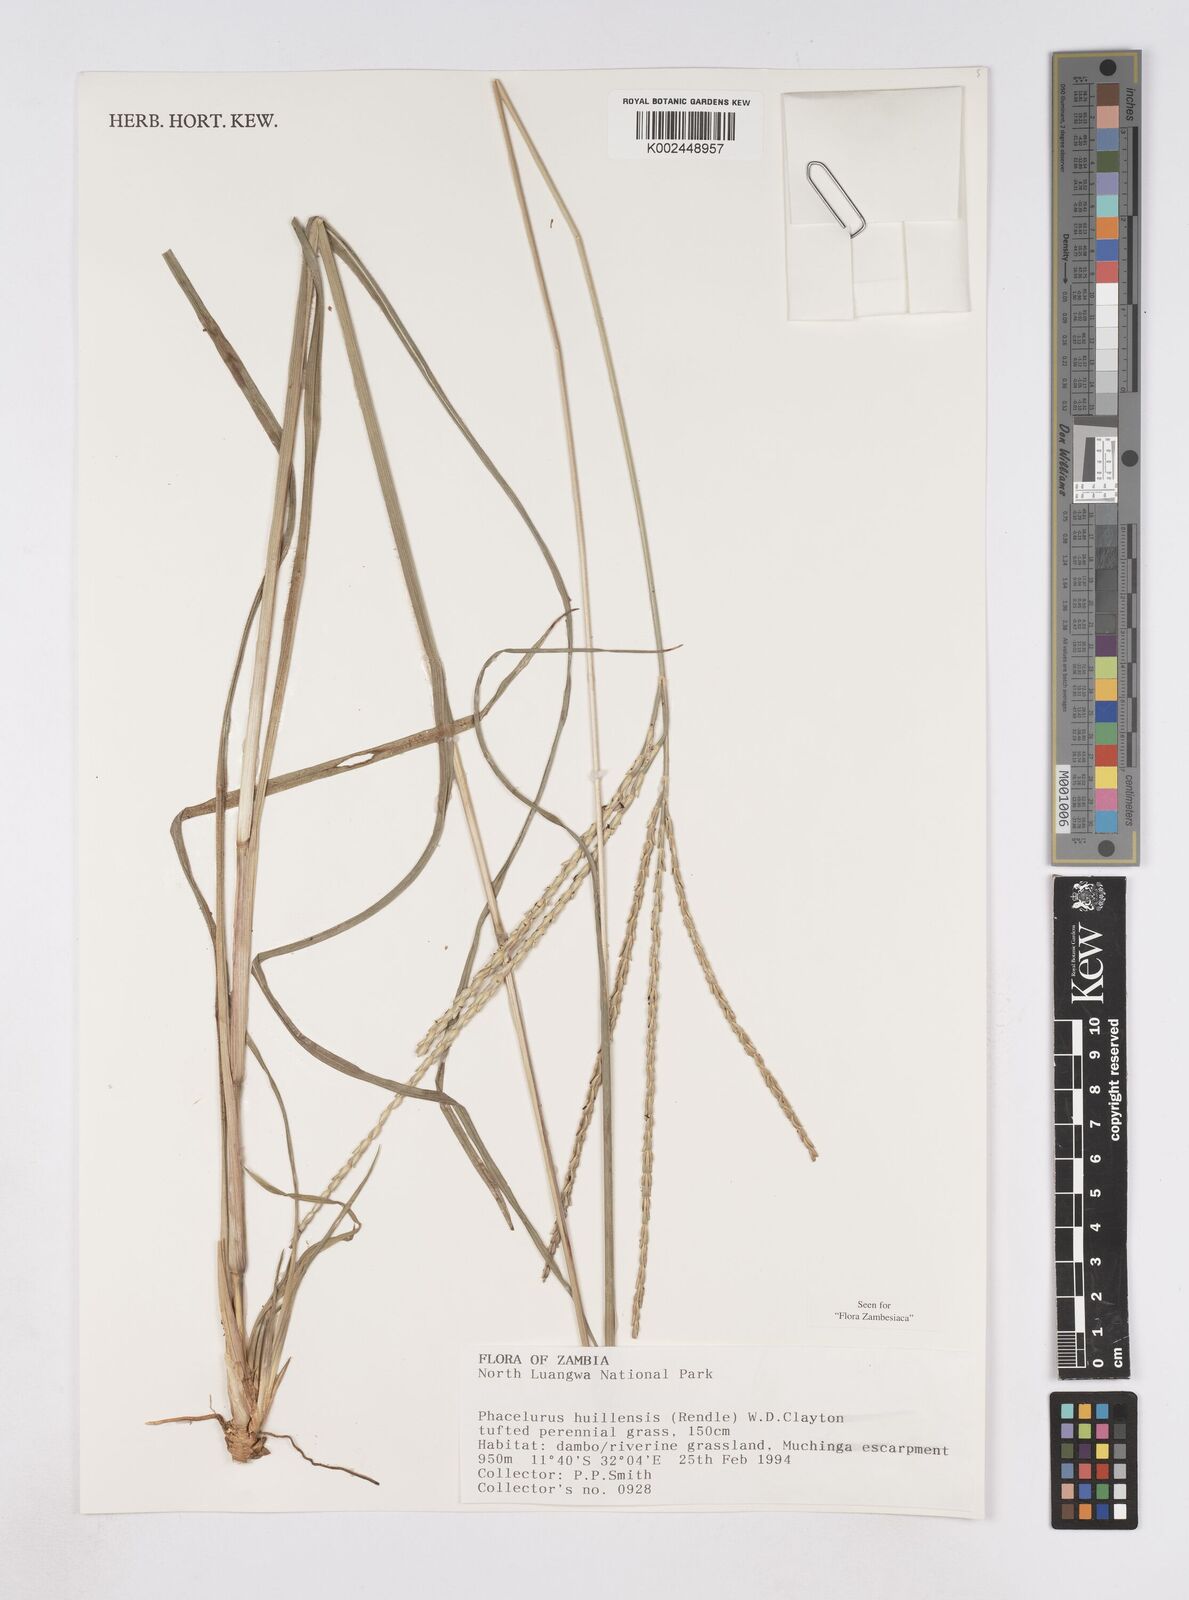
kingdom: Plantae
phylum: Tracheophyta
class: Liliopsida
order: Poales
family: Poaceae
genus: Thyrsia
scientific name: Thyrsia huillensis
